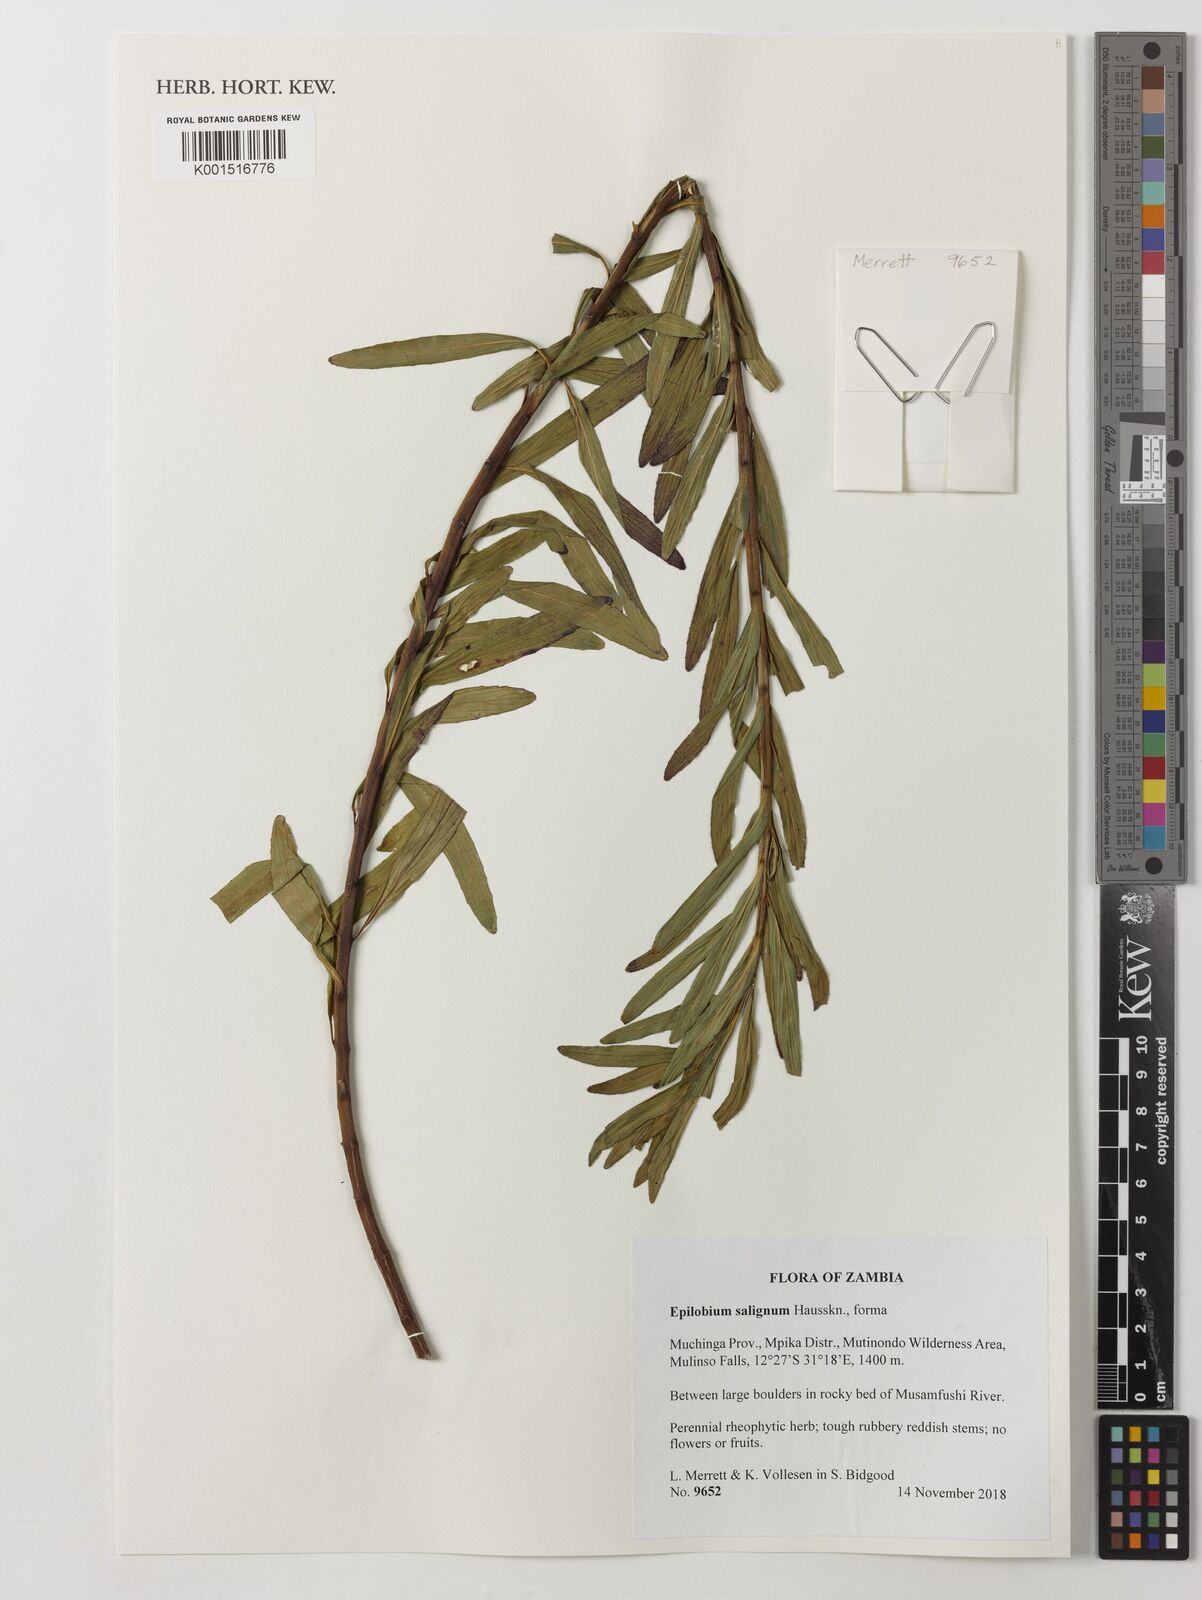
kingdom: Plantae
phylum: Tracheophyta
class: Magnoliopsida
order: Myrtales
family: Onagraceae
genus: Epilobium
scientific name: Epilobium salignum
